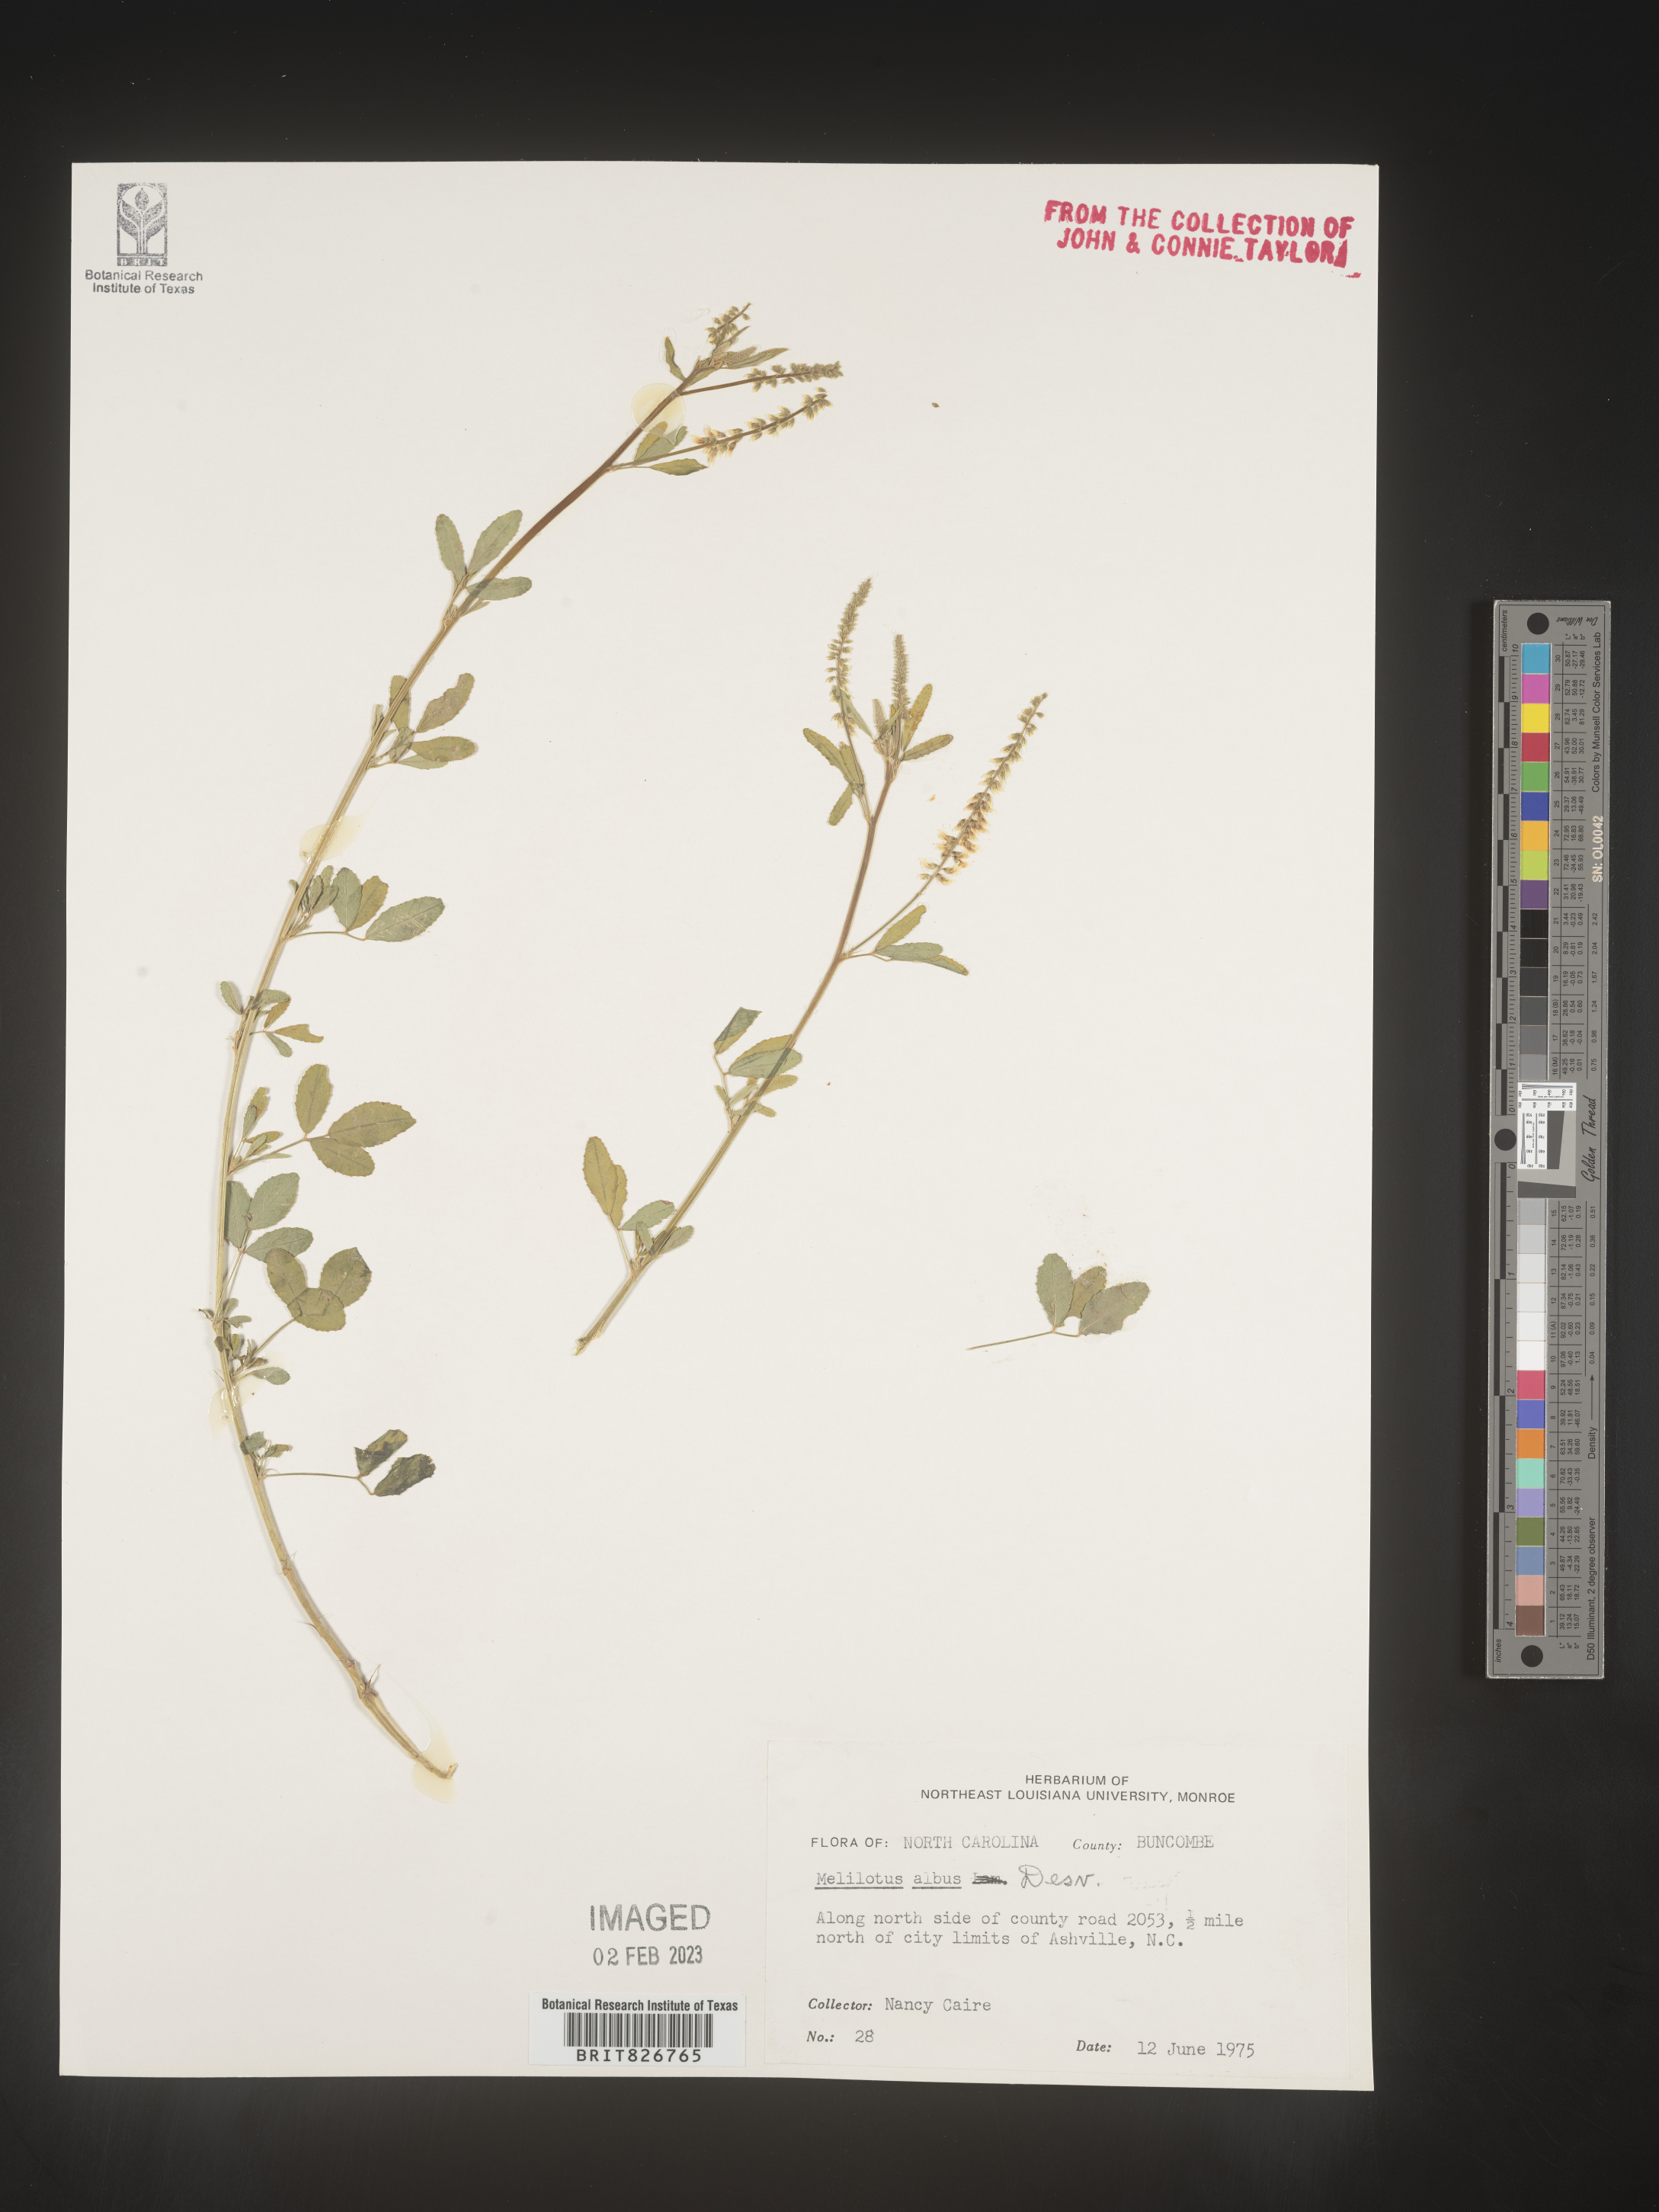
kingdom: Plantae
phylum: Tracheophyta
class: Magnoliopsida
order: Fabales
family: Fabaceae
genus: Melilotus
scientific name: Melilotus albus
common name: White melilot
